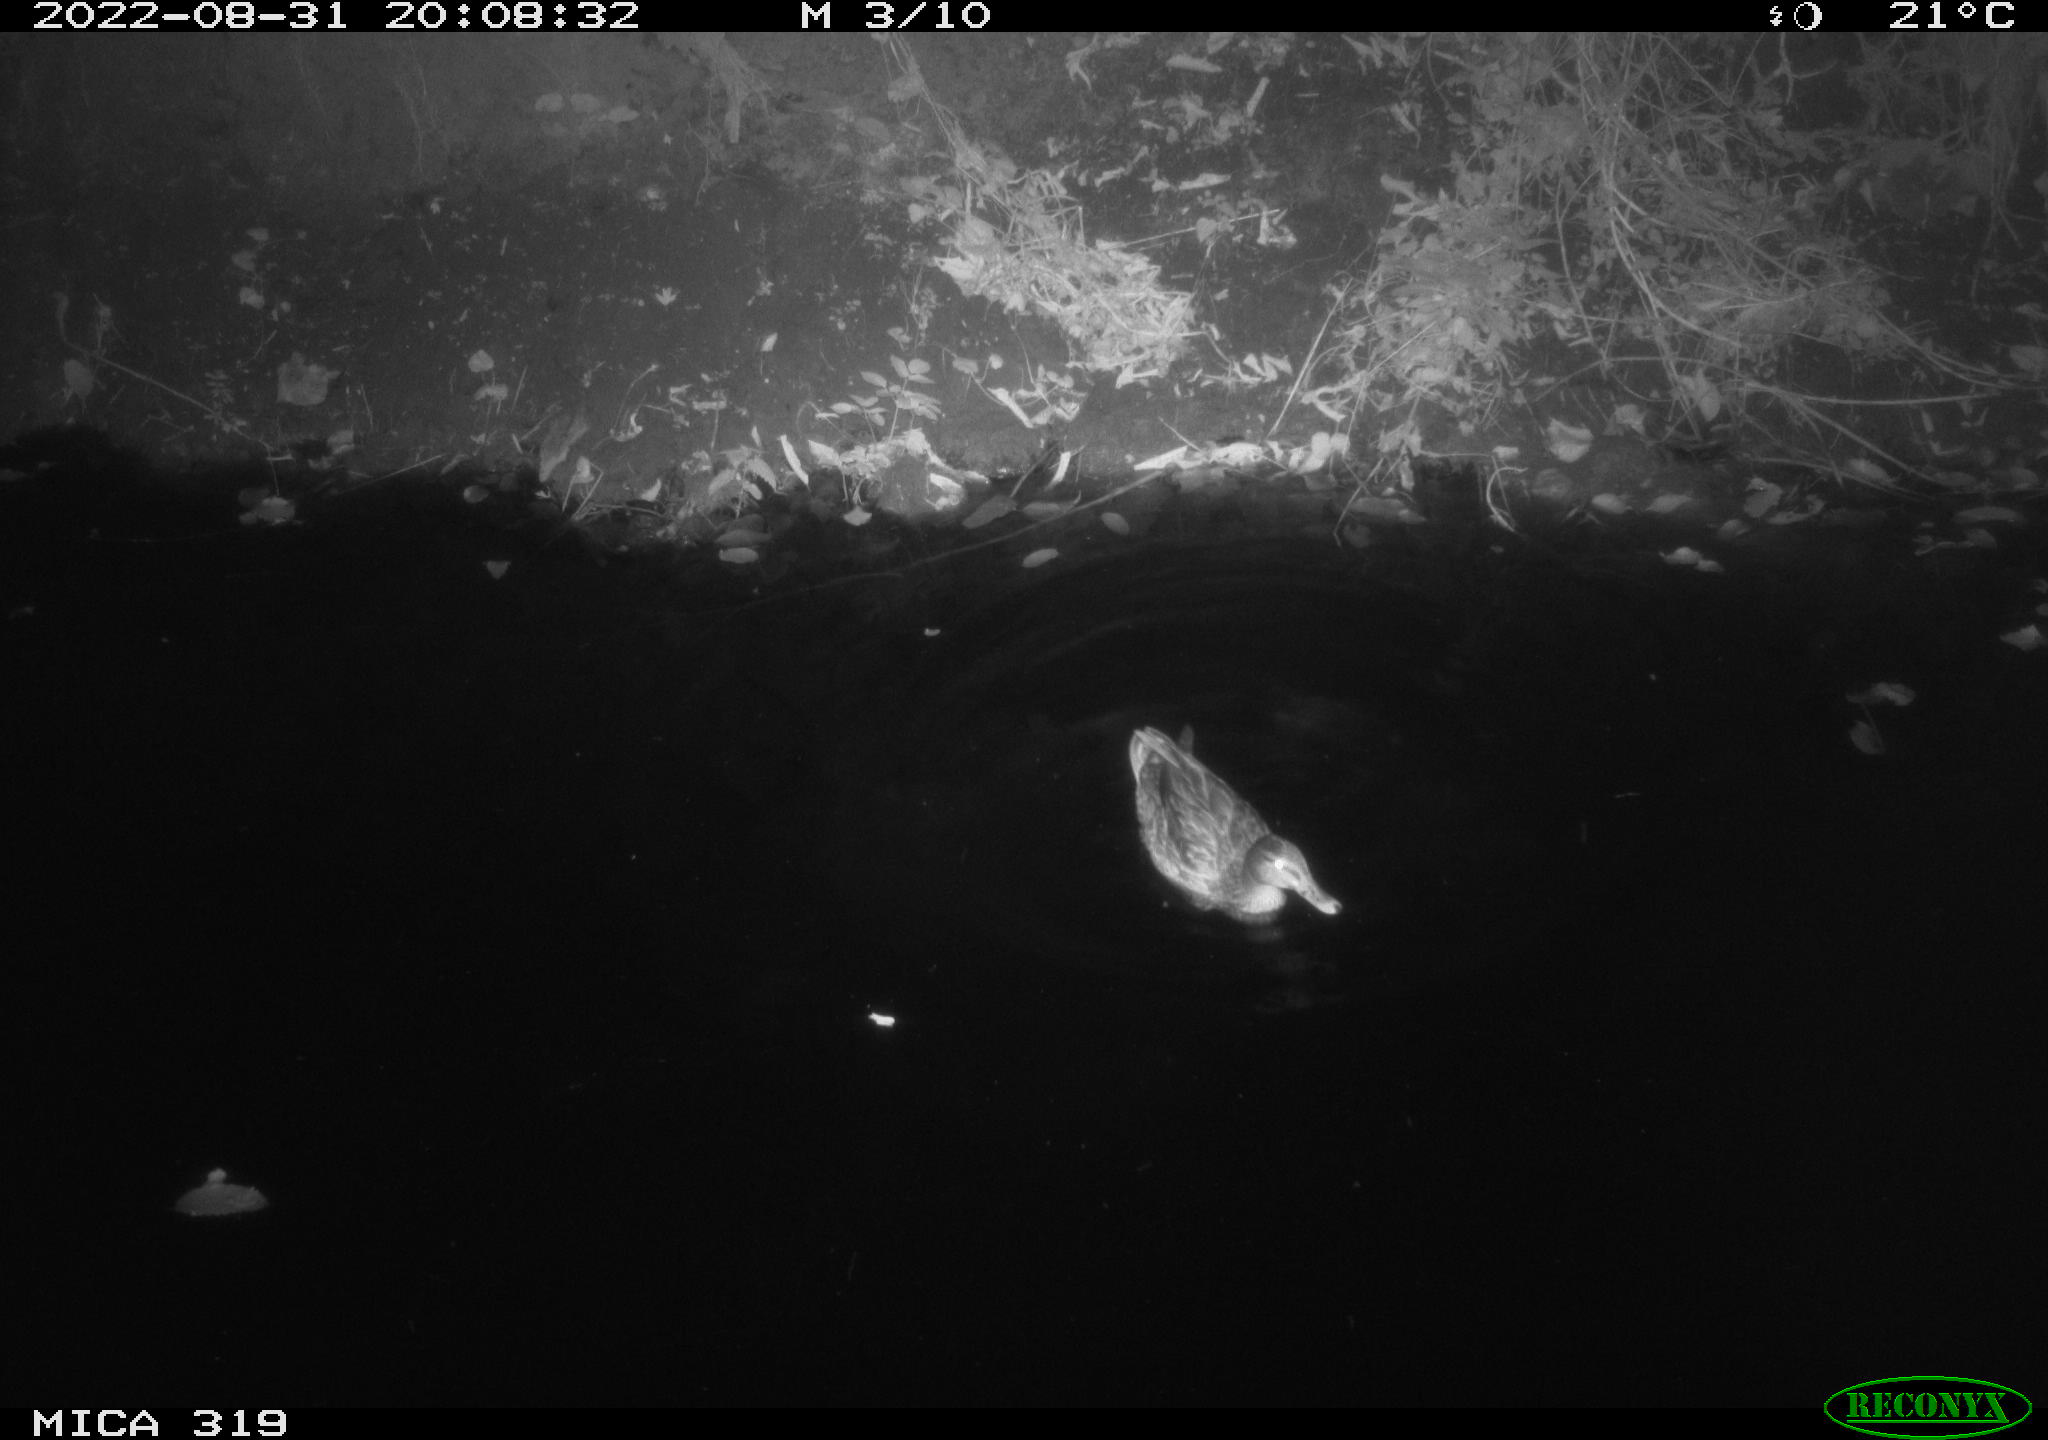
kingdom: Animalia
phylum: Chordata
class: Aves
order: Anseriformes
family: Anatidae
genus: Anas
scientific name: Anas
